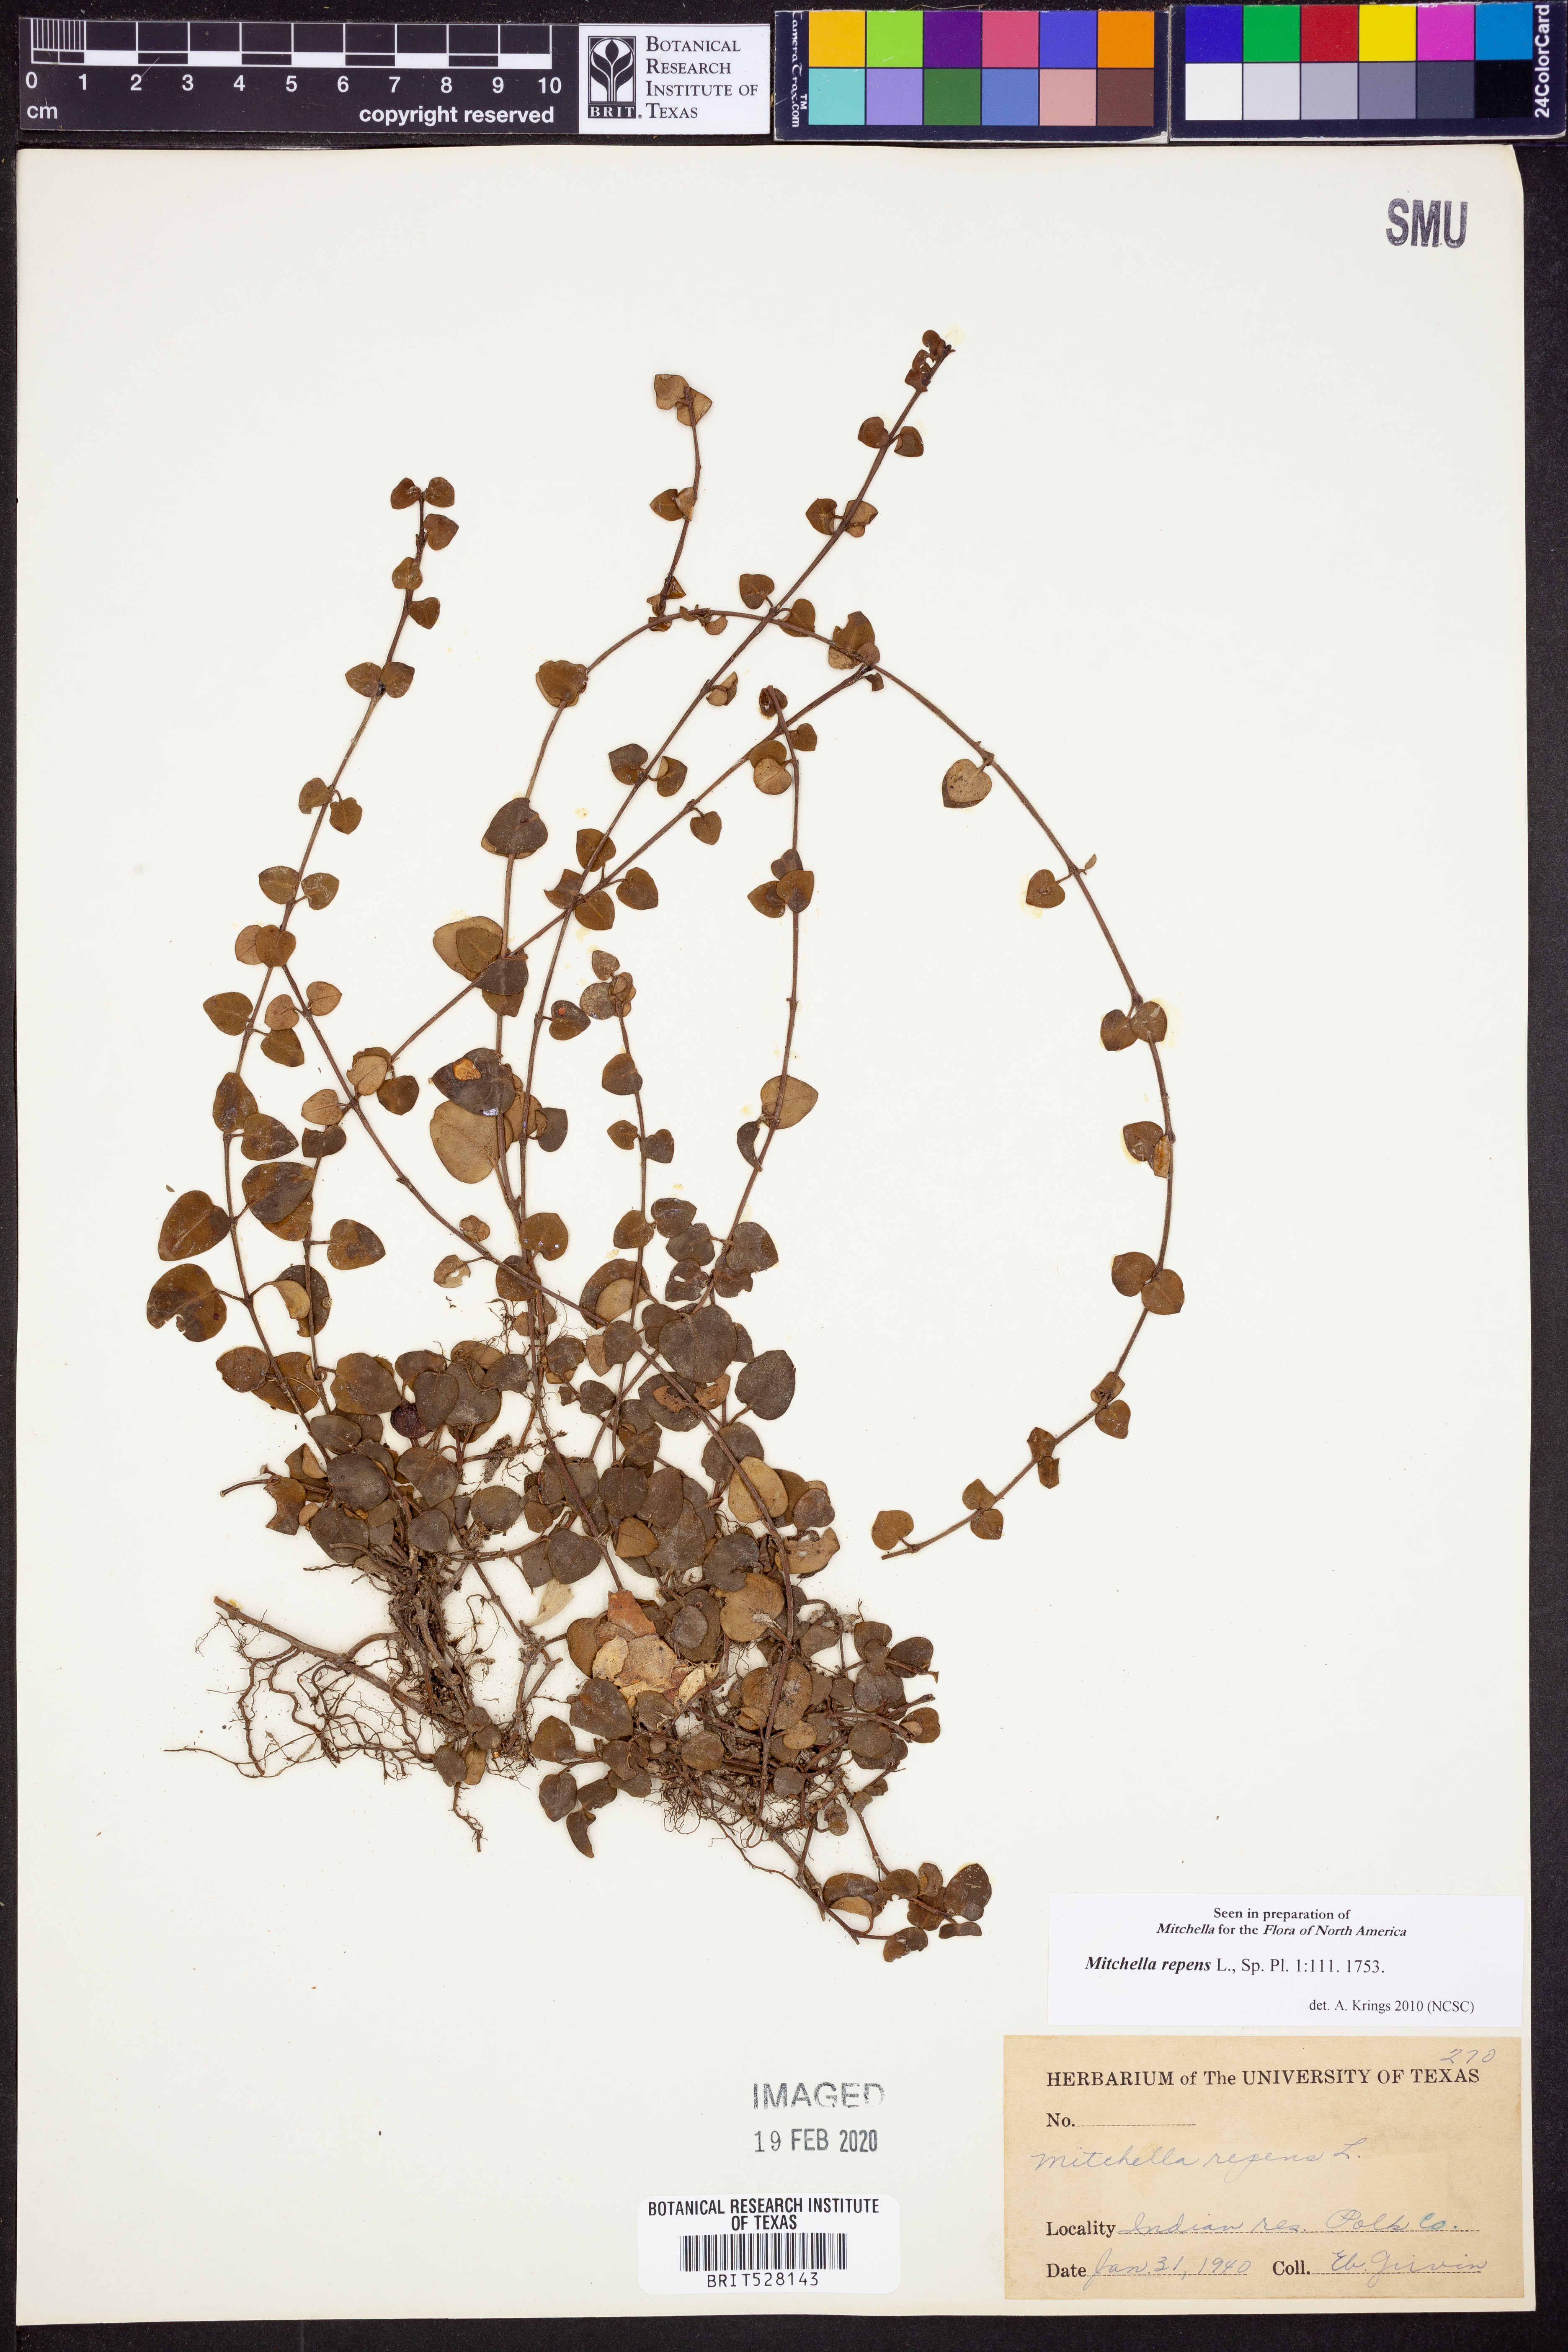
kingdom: Plantae
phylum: Tracheophyta
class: Magnoliopsida
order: Gentianales
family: Rubiaceae
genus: Mitchella
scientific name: Mitchella repens
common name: Partridge-berry
